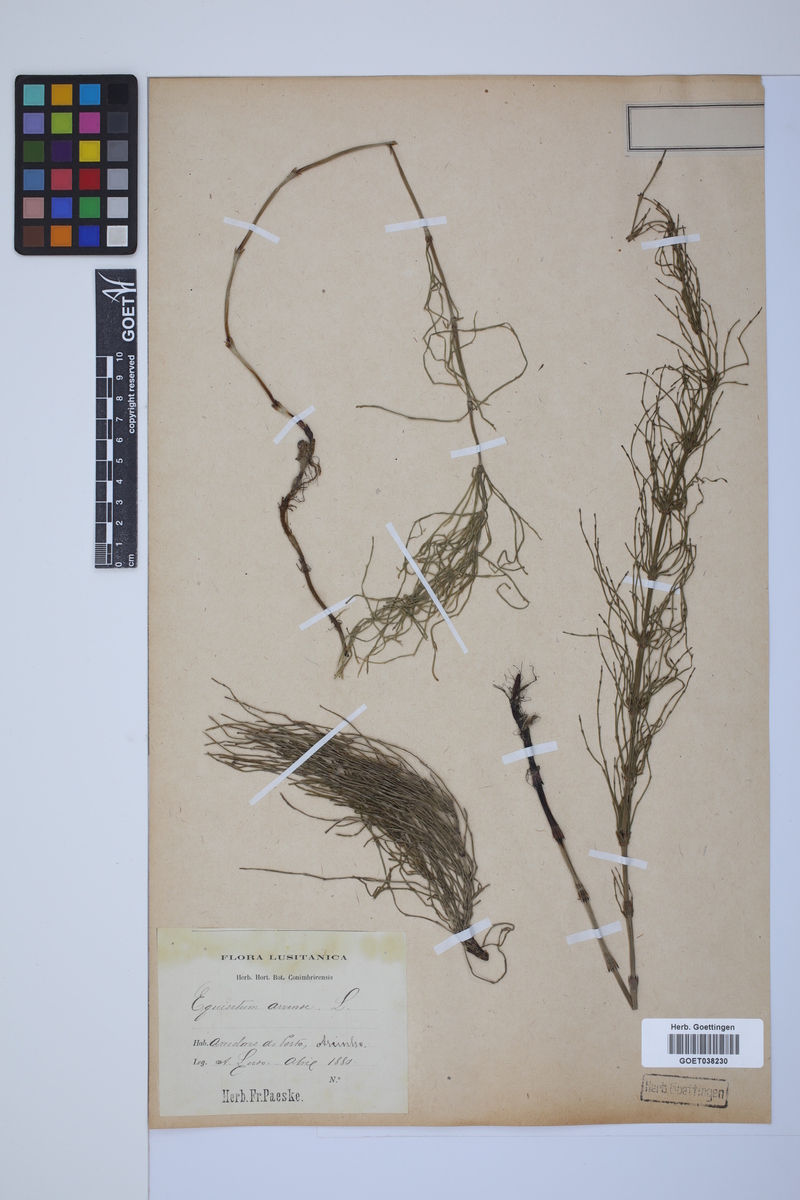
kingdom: Plantae
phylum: Tracheophyta
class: Polypodiopsida
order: Equisetales
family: Equisetaceae
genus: Equisetum
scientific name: Equisetum arvense
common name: Field horsetail
